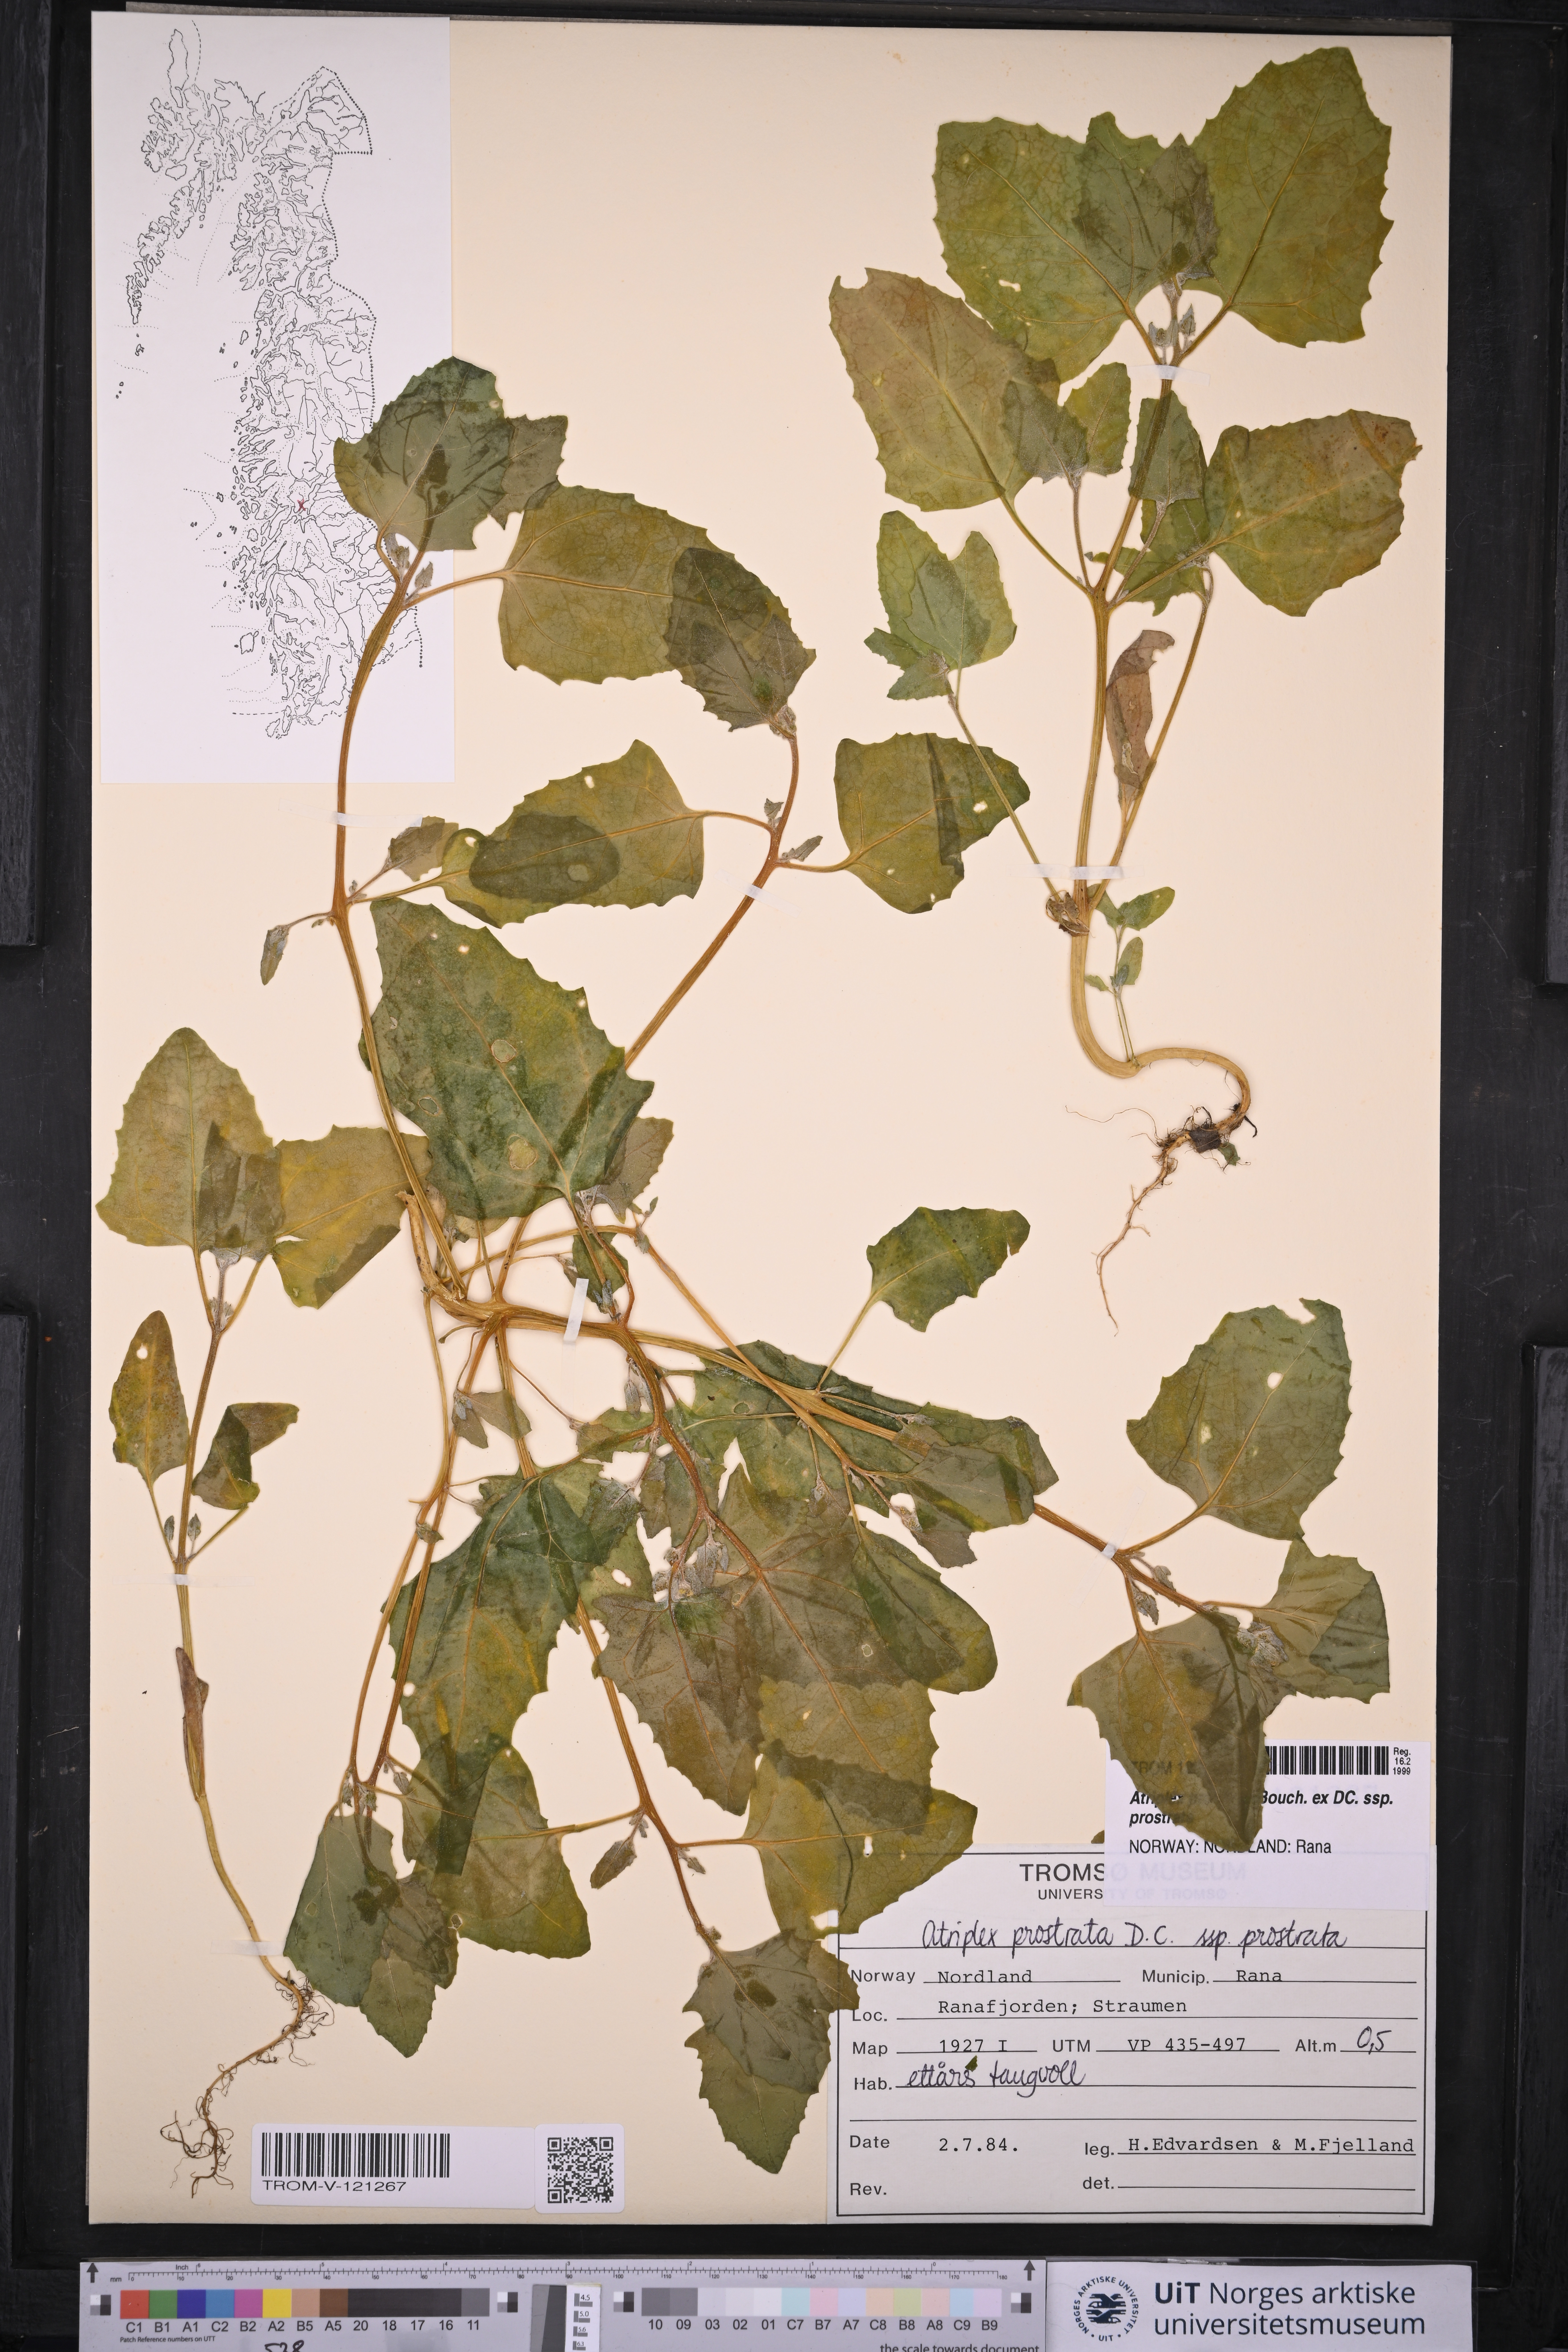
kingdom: Plantae
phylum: Tracheophyta
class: Magnoliopsida
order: Caryophyllales
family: Amaranthaceae
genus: Atriplex
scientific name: Atriplex prostrata
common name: Spear-leaved orache
